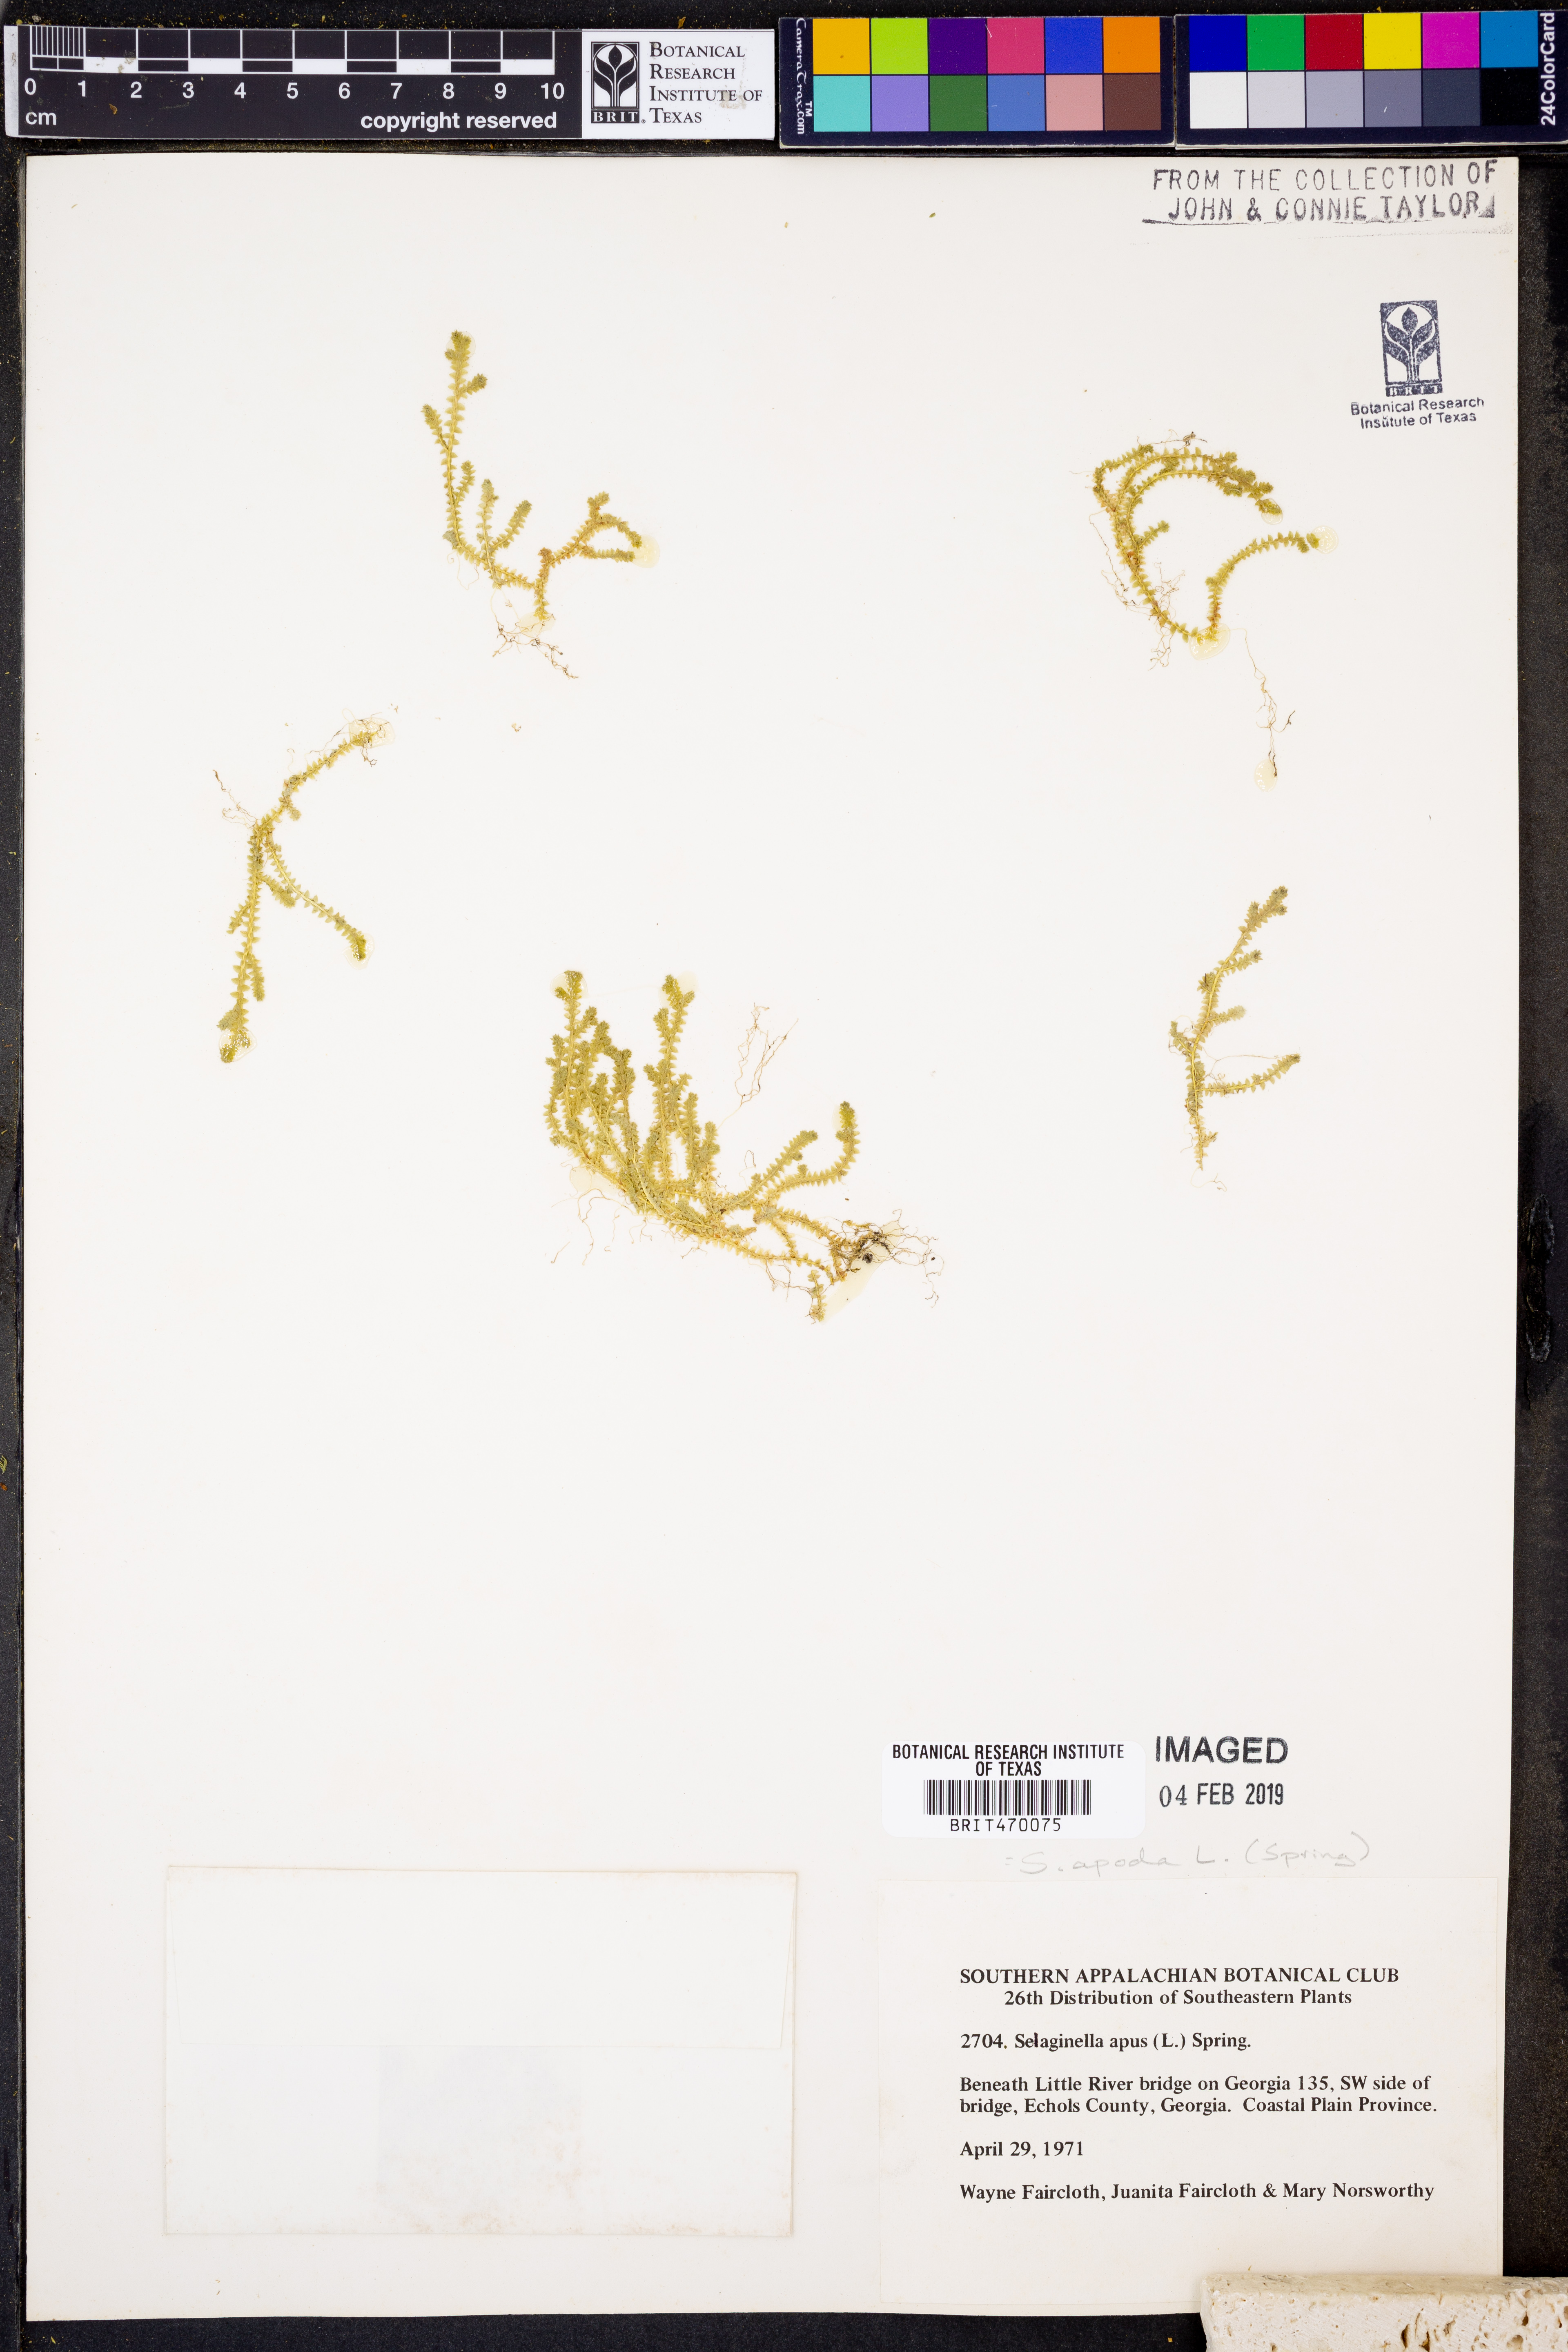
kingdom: Plantae
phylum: Tracheophyta
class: Lycopodiopsida
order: Selaginellales
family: Selaginellaceae
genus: Selaginella
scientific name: Selaginella apoda
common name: Creeping spikemoss
